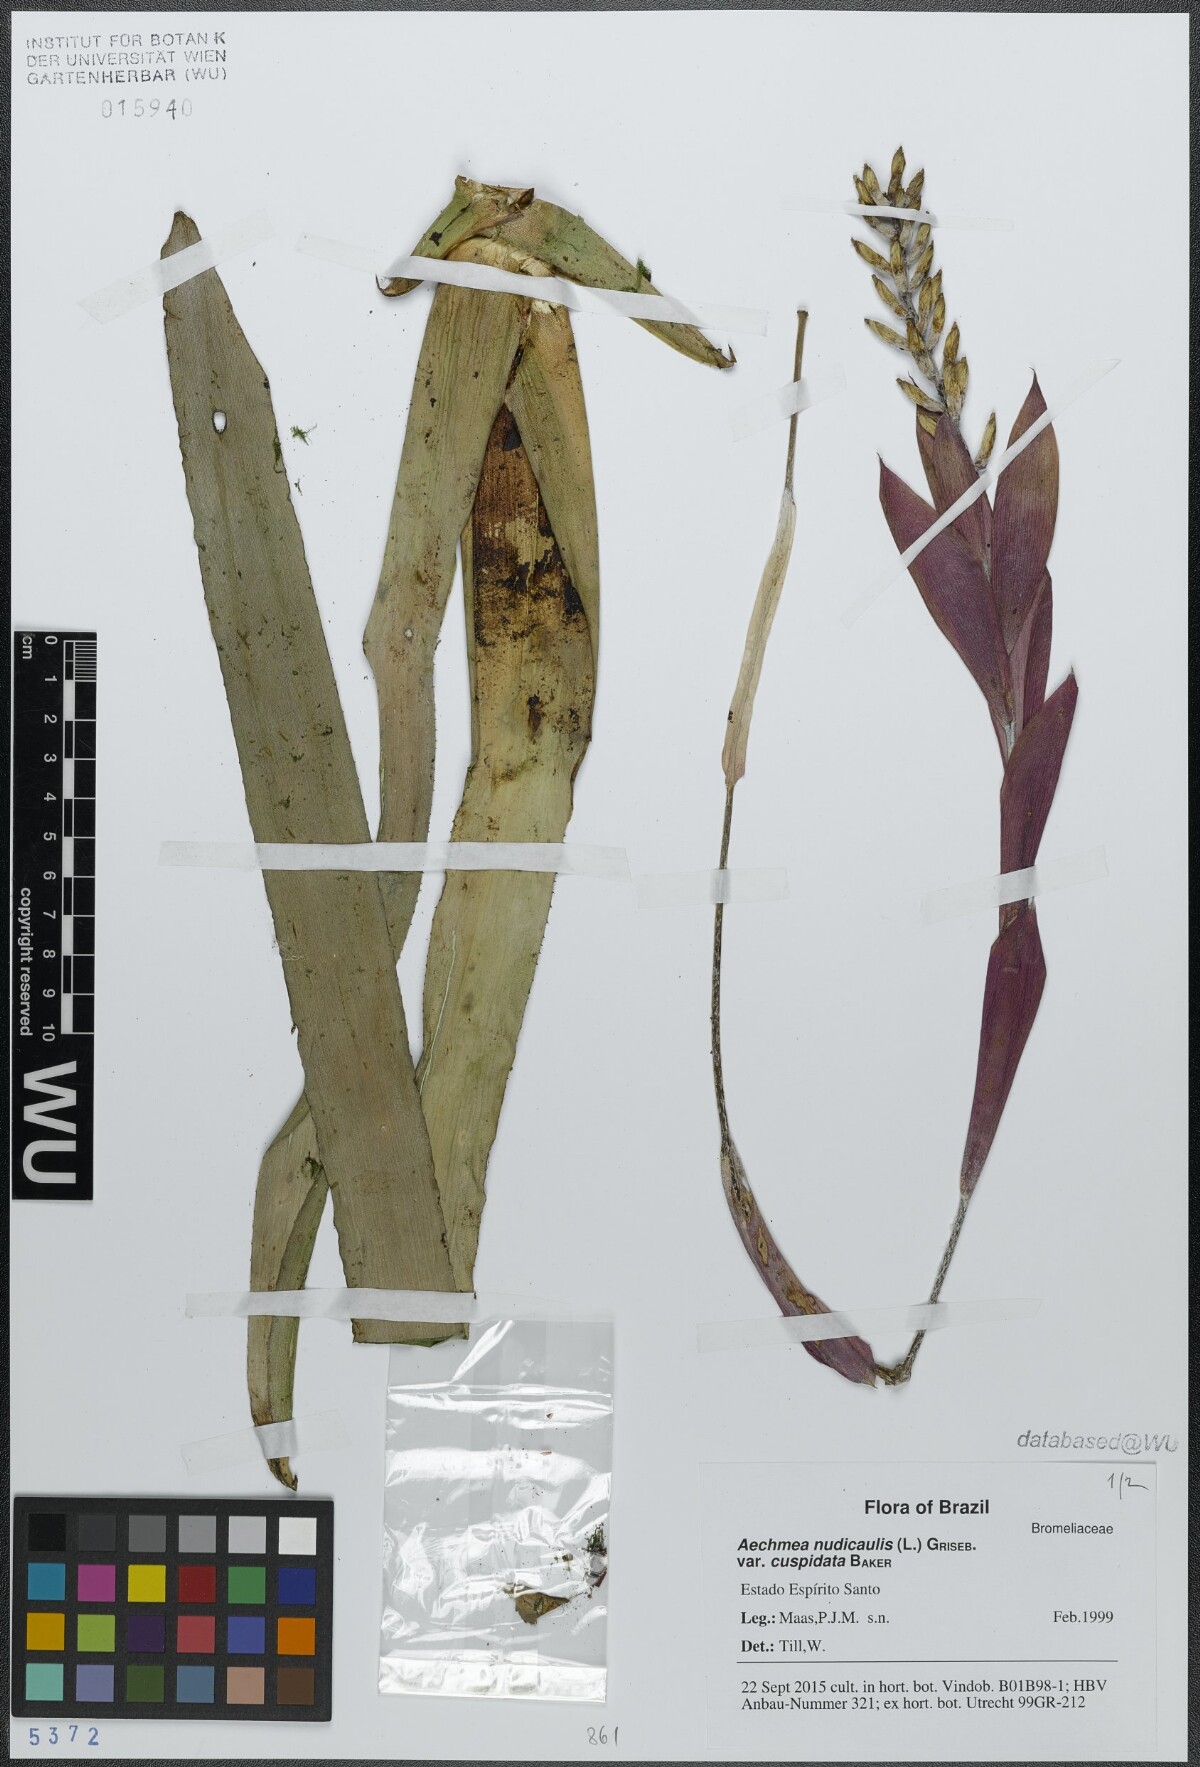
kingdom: Plantae
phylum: Tracheophyta
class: Liliopsida
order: Poales
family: Bromeliaceae
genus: Aechmea
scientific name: Aechmea nudicaulis
